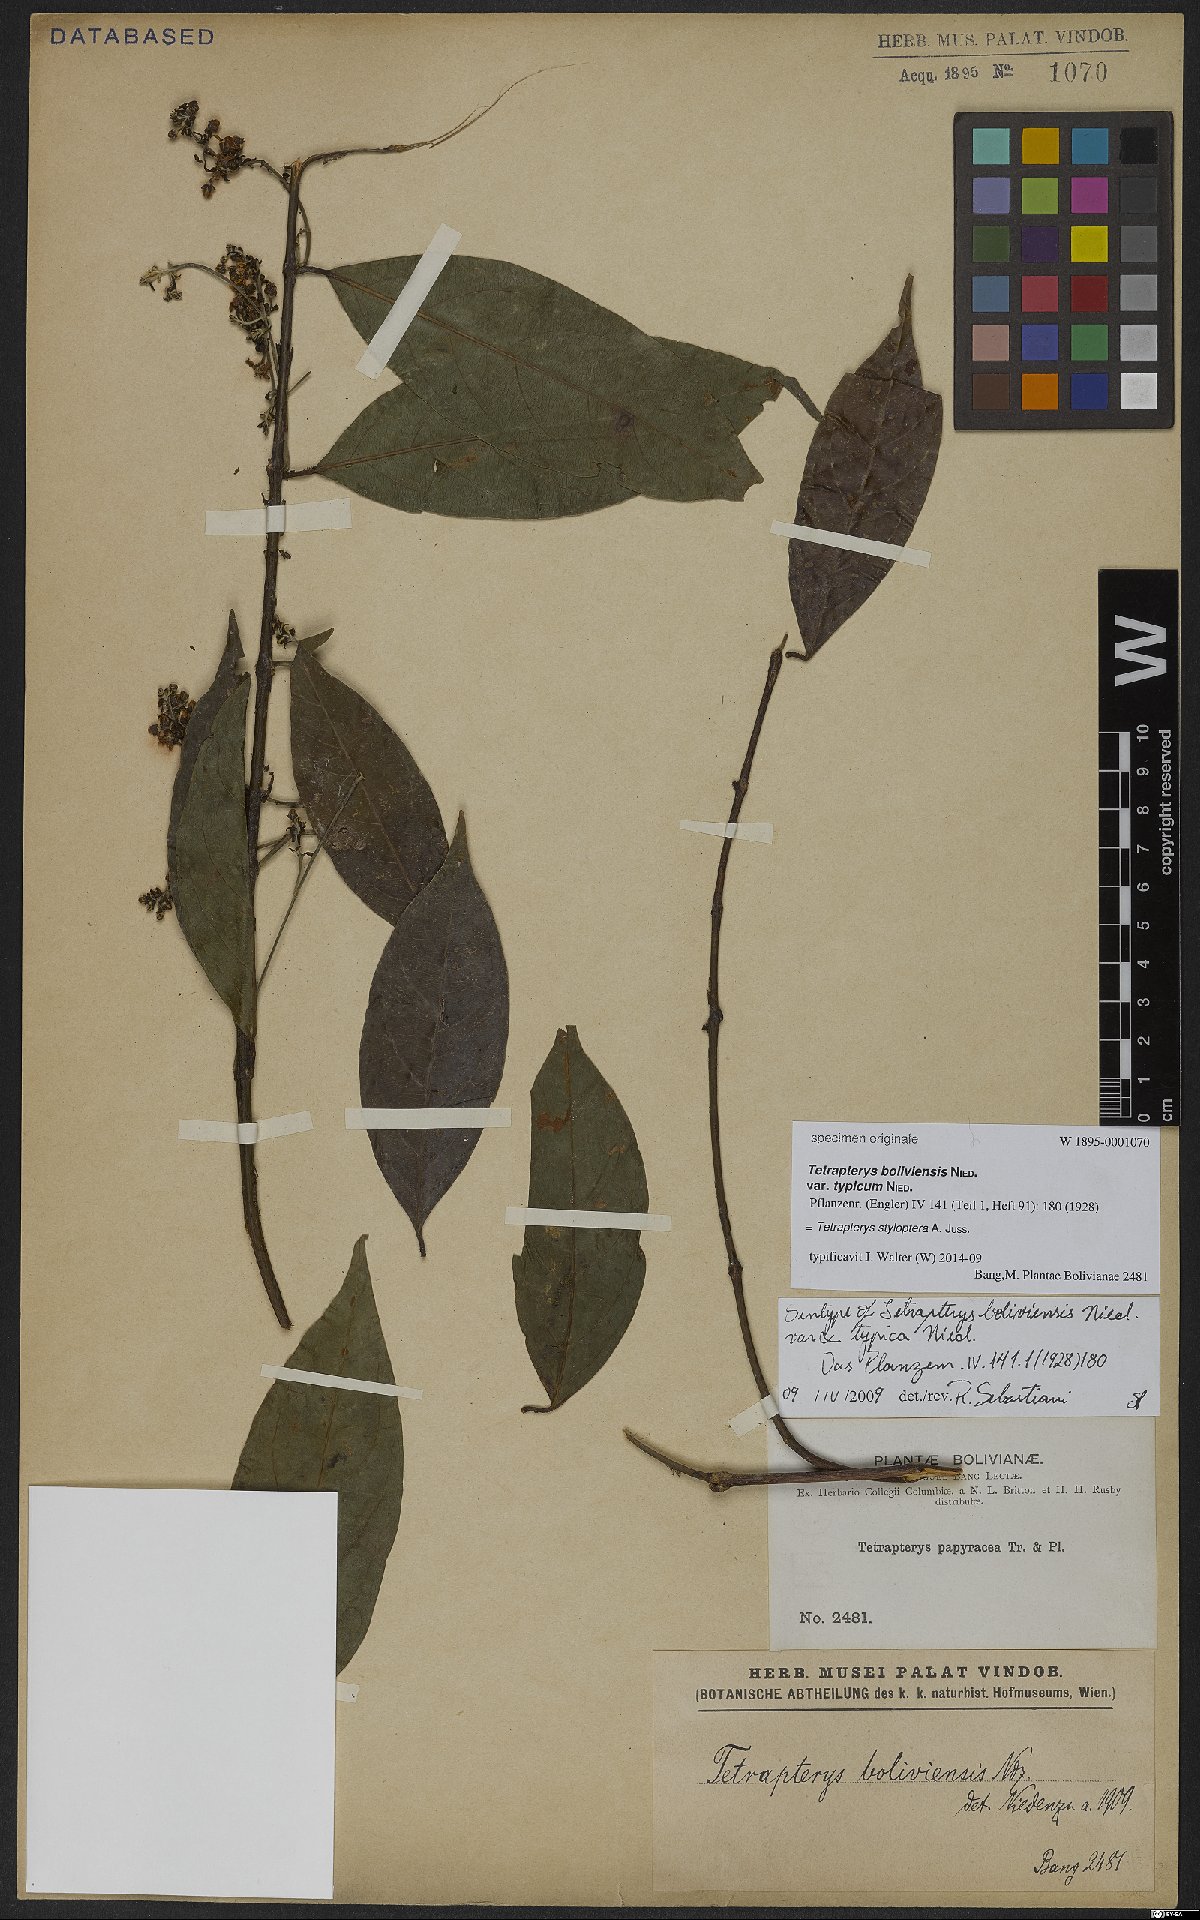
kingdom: Plantae
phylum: Tracheophyta
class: Magnoliopsida
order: Malpighiales
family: Malpighiaceae
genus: Glicophyllum
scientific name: Glicophyllum stylopterum
